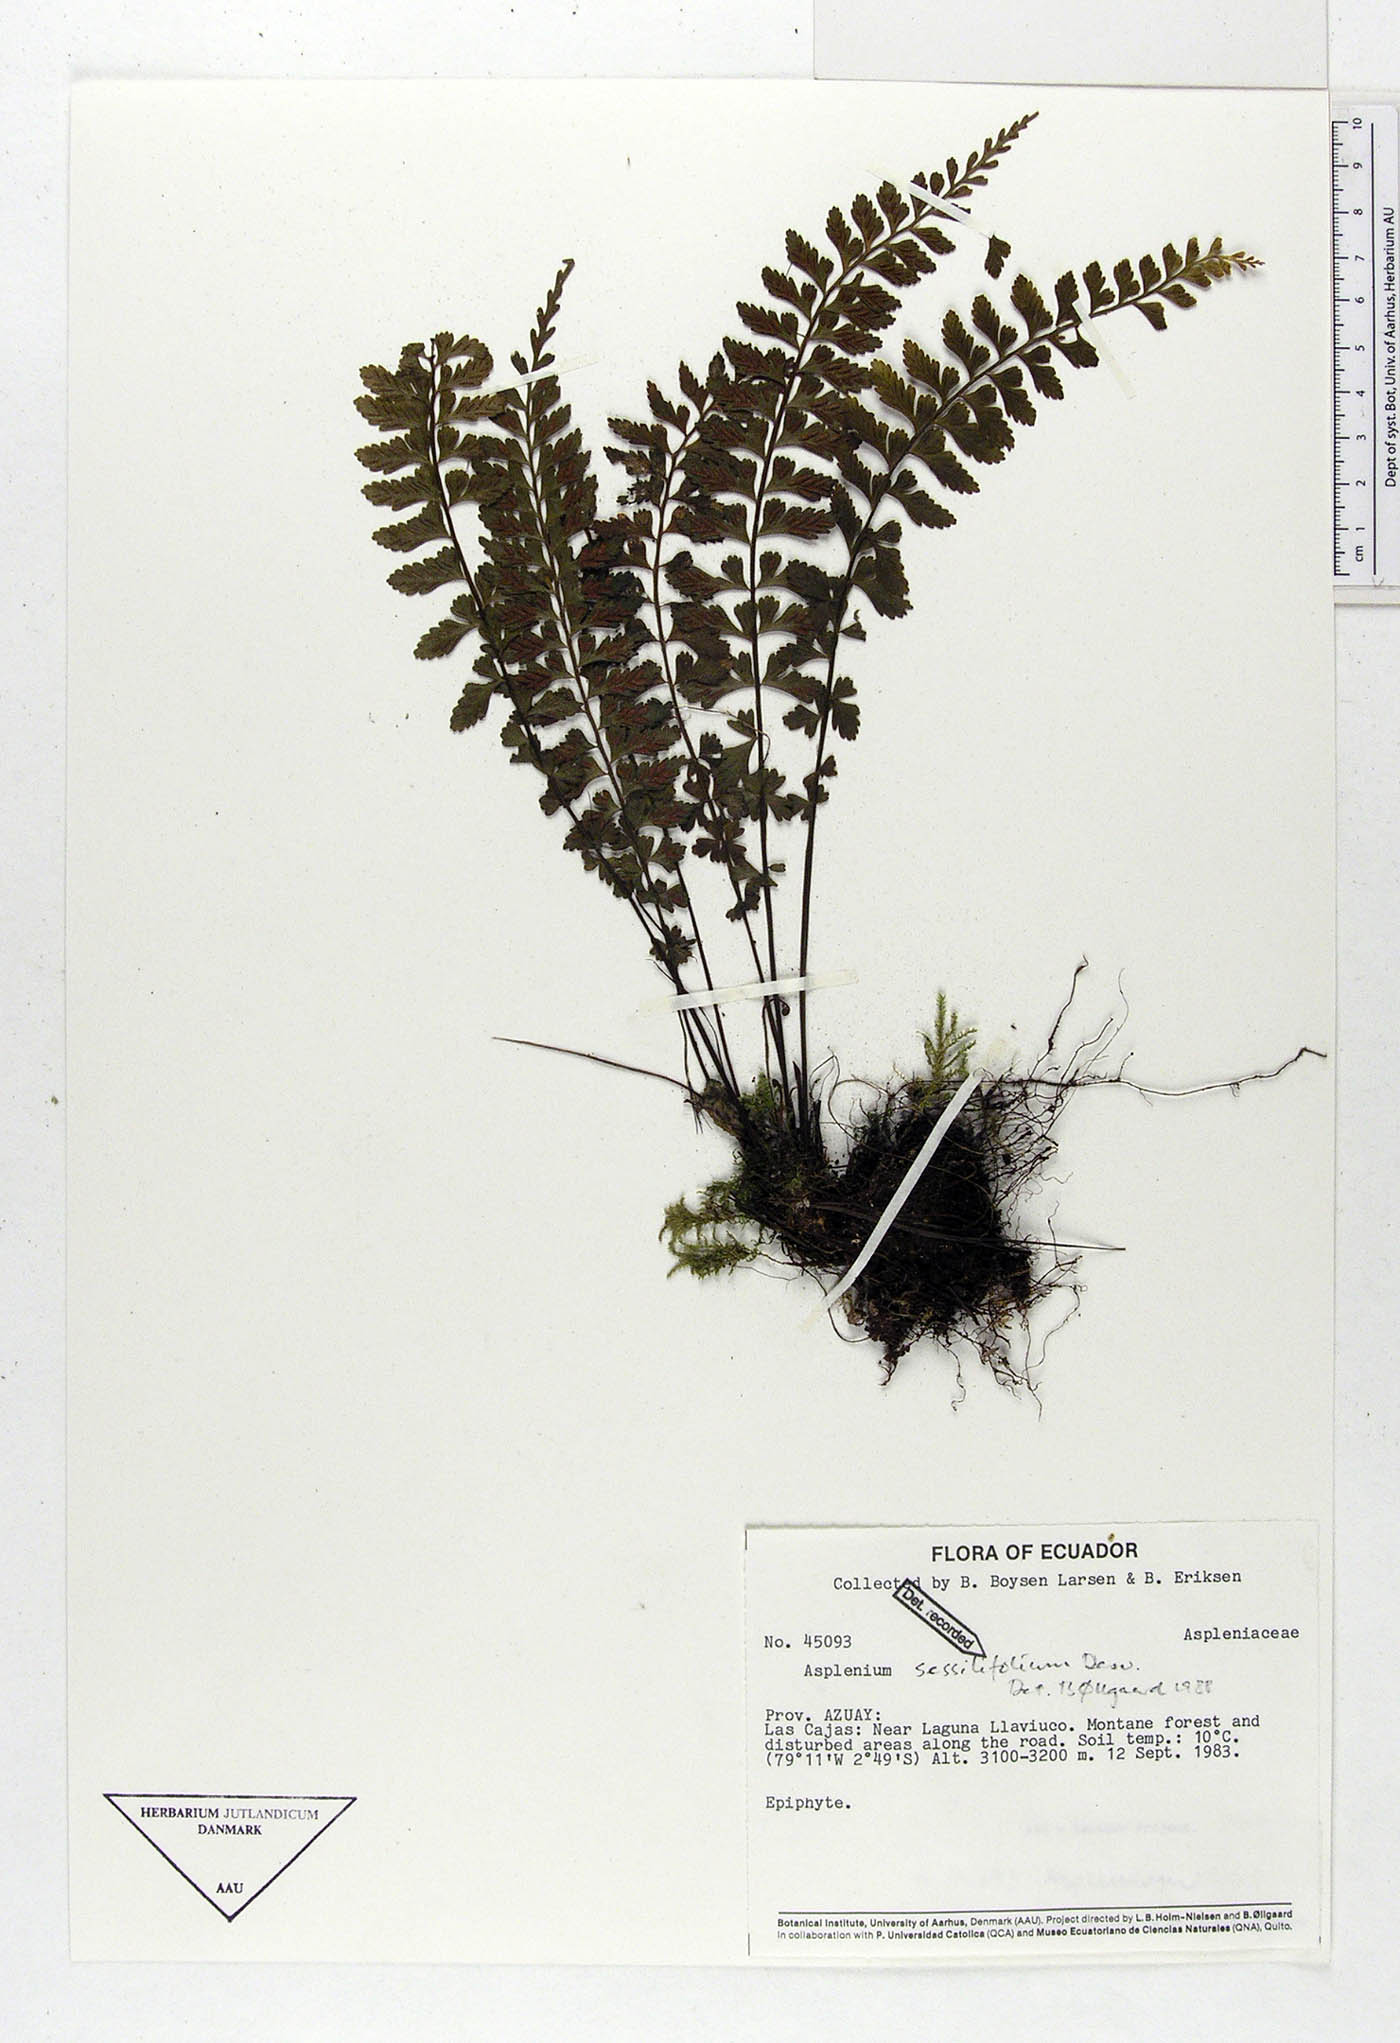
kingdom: Plantae
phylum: Tracheophyta
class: Polypodiopsida
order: Polypodiales
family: Aspleniaceae
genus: Asplenium
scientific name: Asplenium sessilifolium
